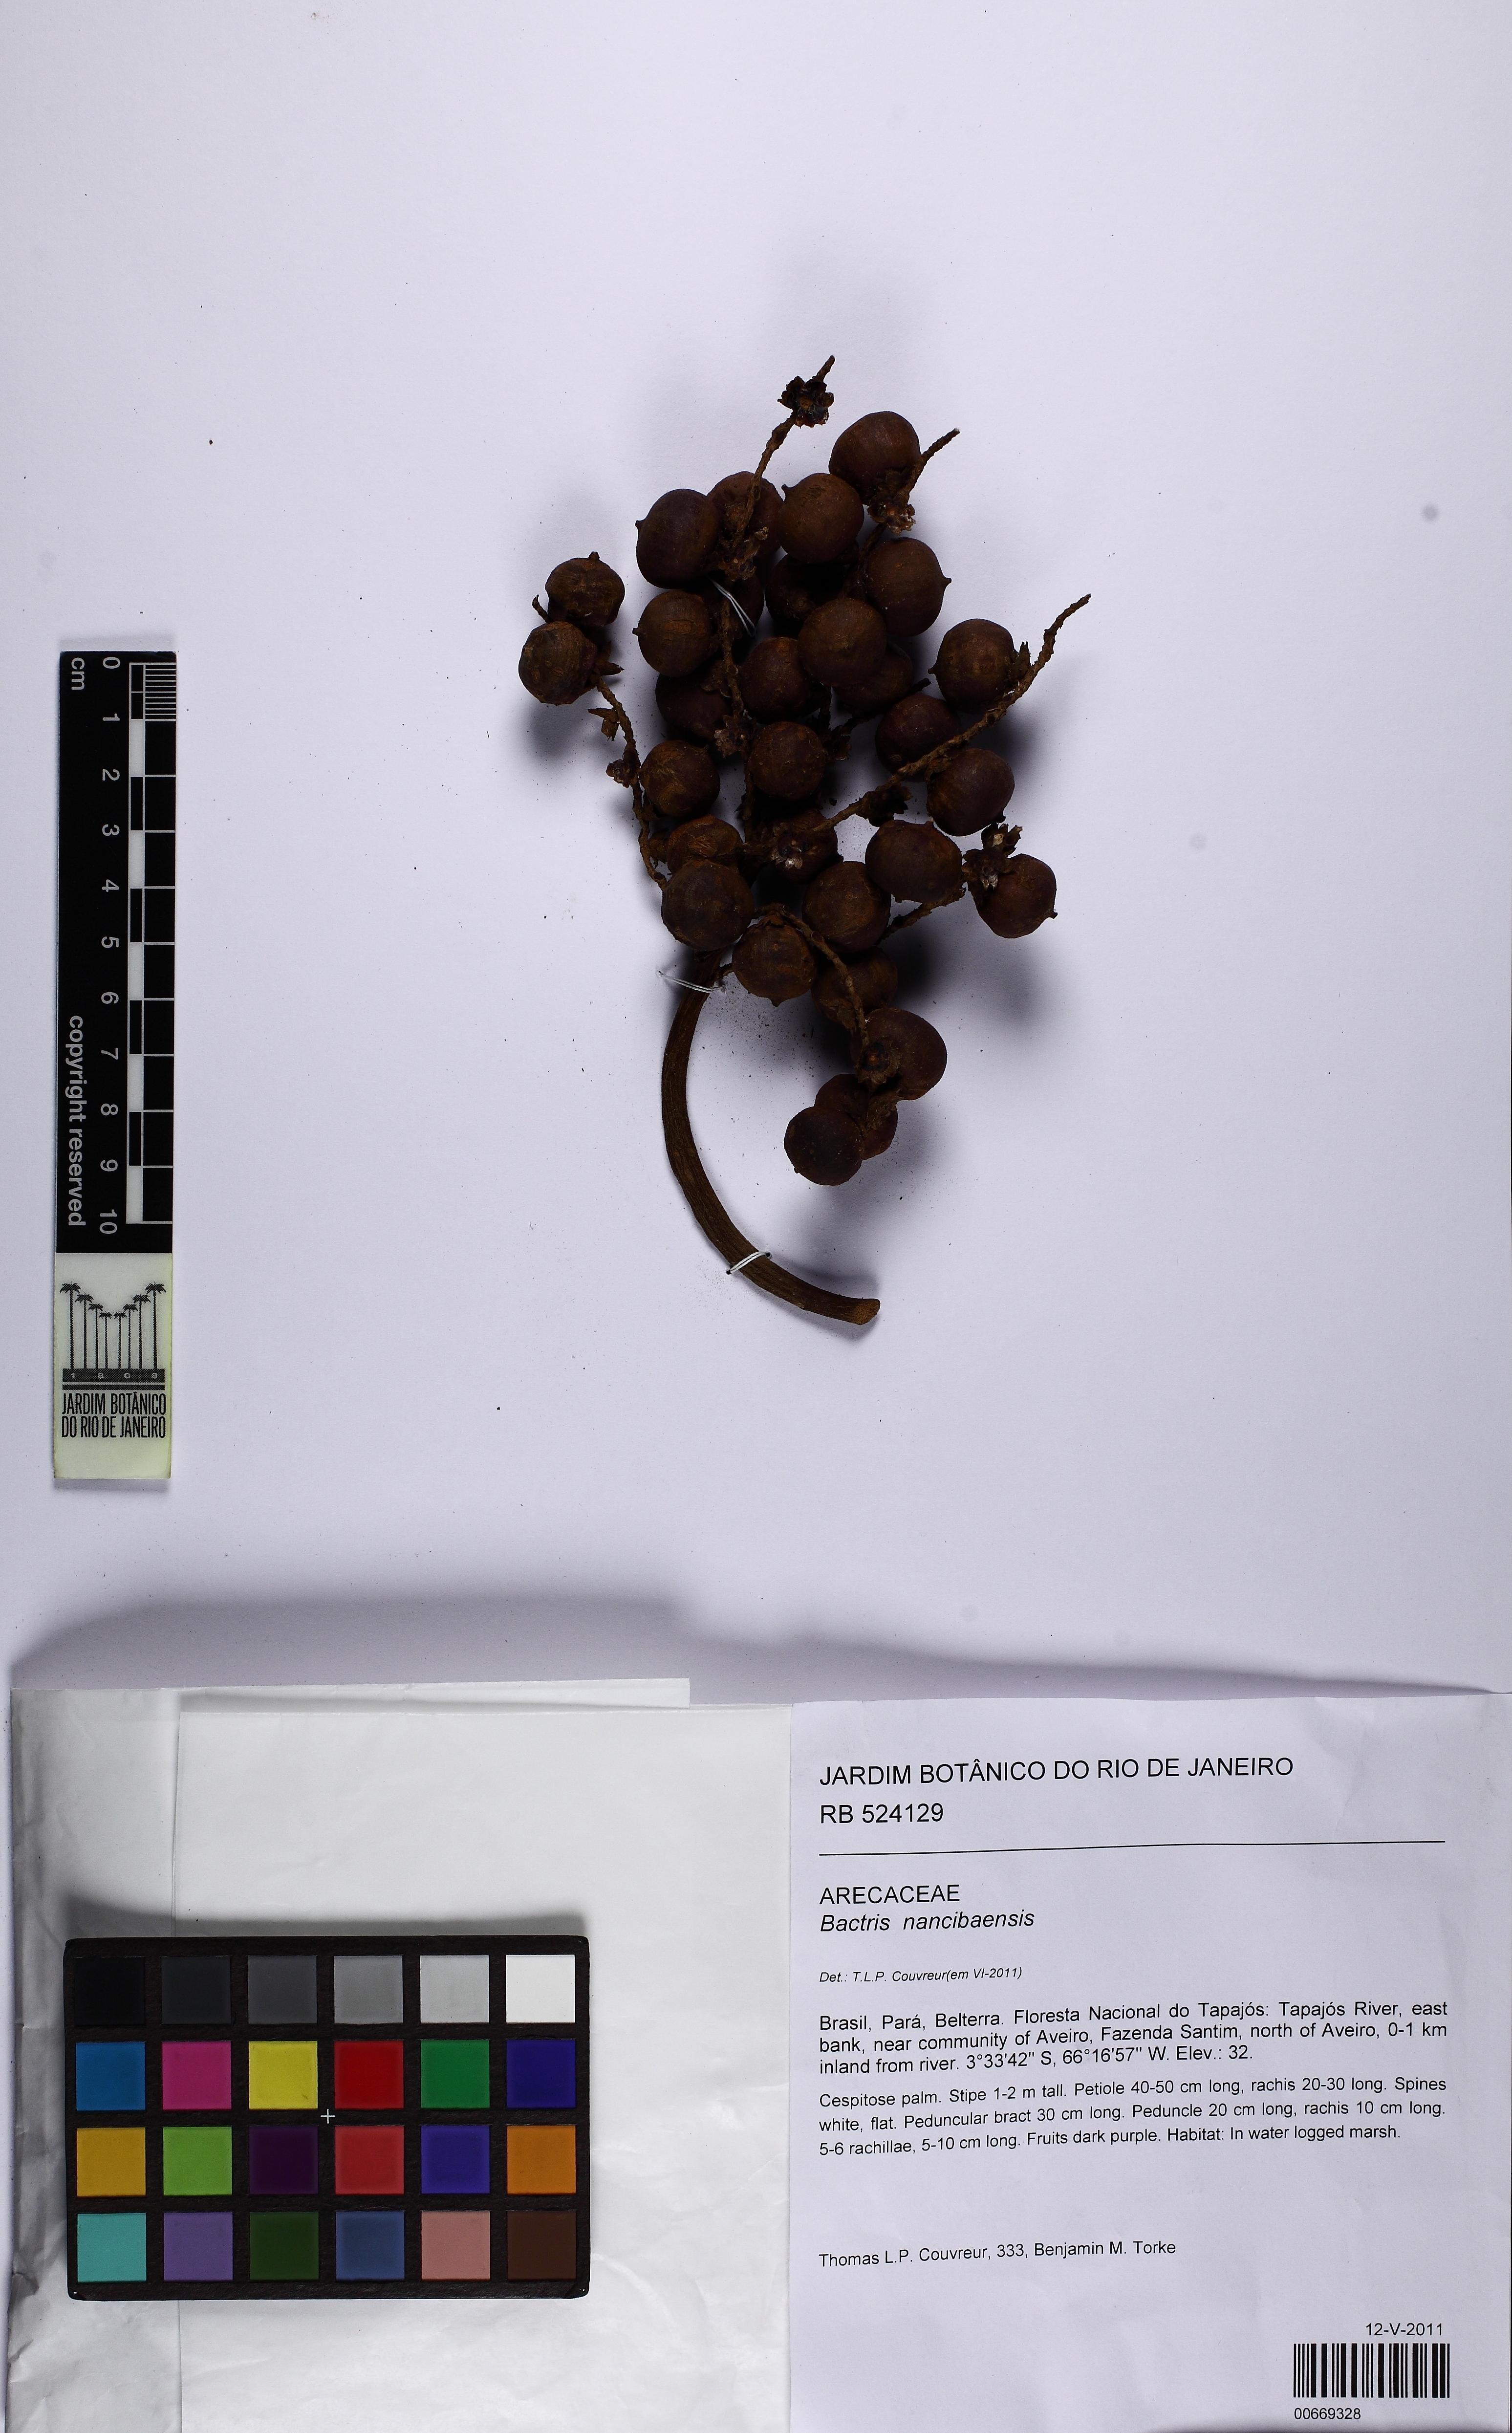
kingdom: Plantae
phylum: Tracheophyta
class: Liliopsida
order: Arecales
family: Arecaceae
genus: Bactris
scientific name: Bactris nancibaensis
